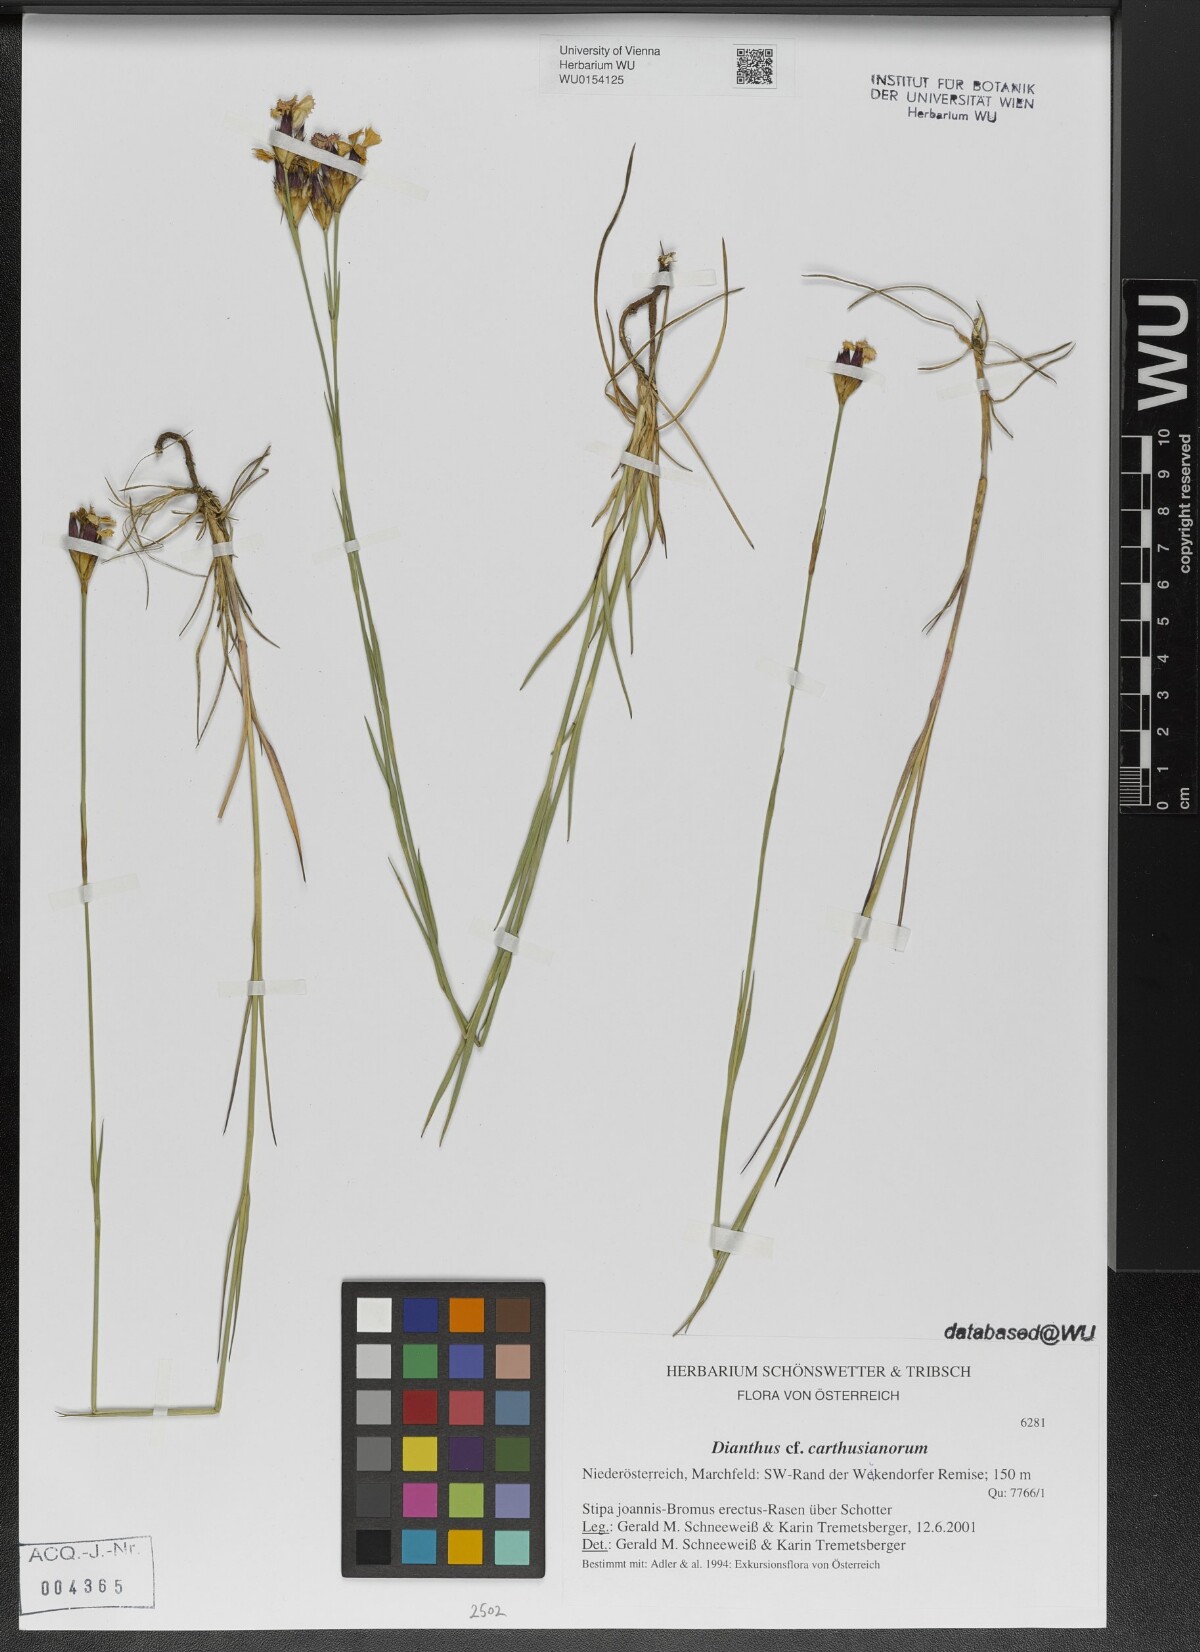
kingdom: Plantae
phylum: Tracheophyta
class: Magnoliopsida
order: Caryophyllales
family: Caryophyllaceae
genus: Dianthus
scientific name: Dianthus carthusianorum
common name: Carthusian pink
